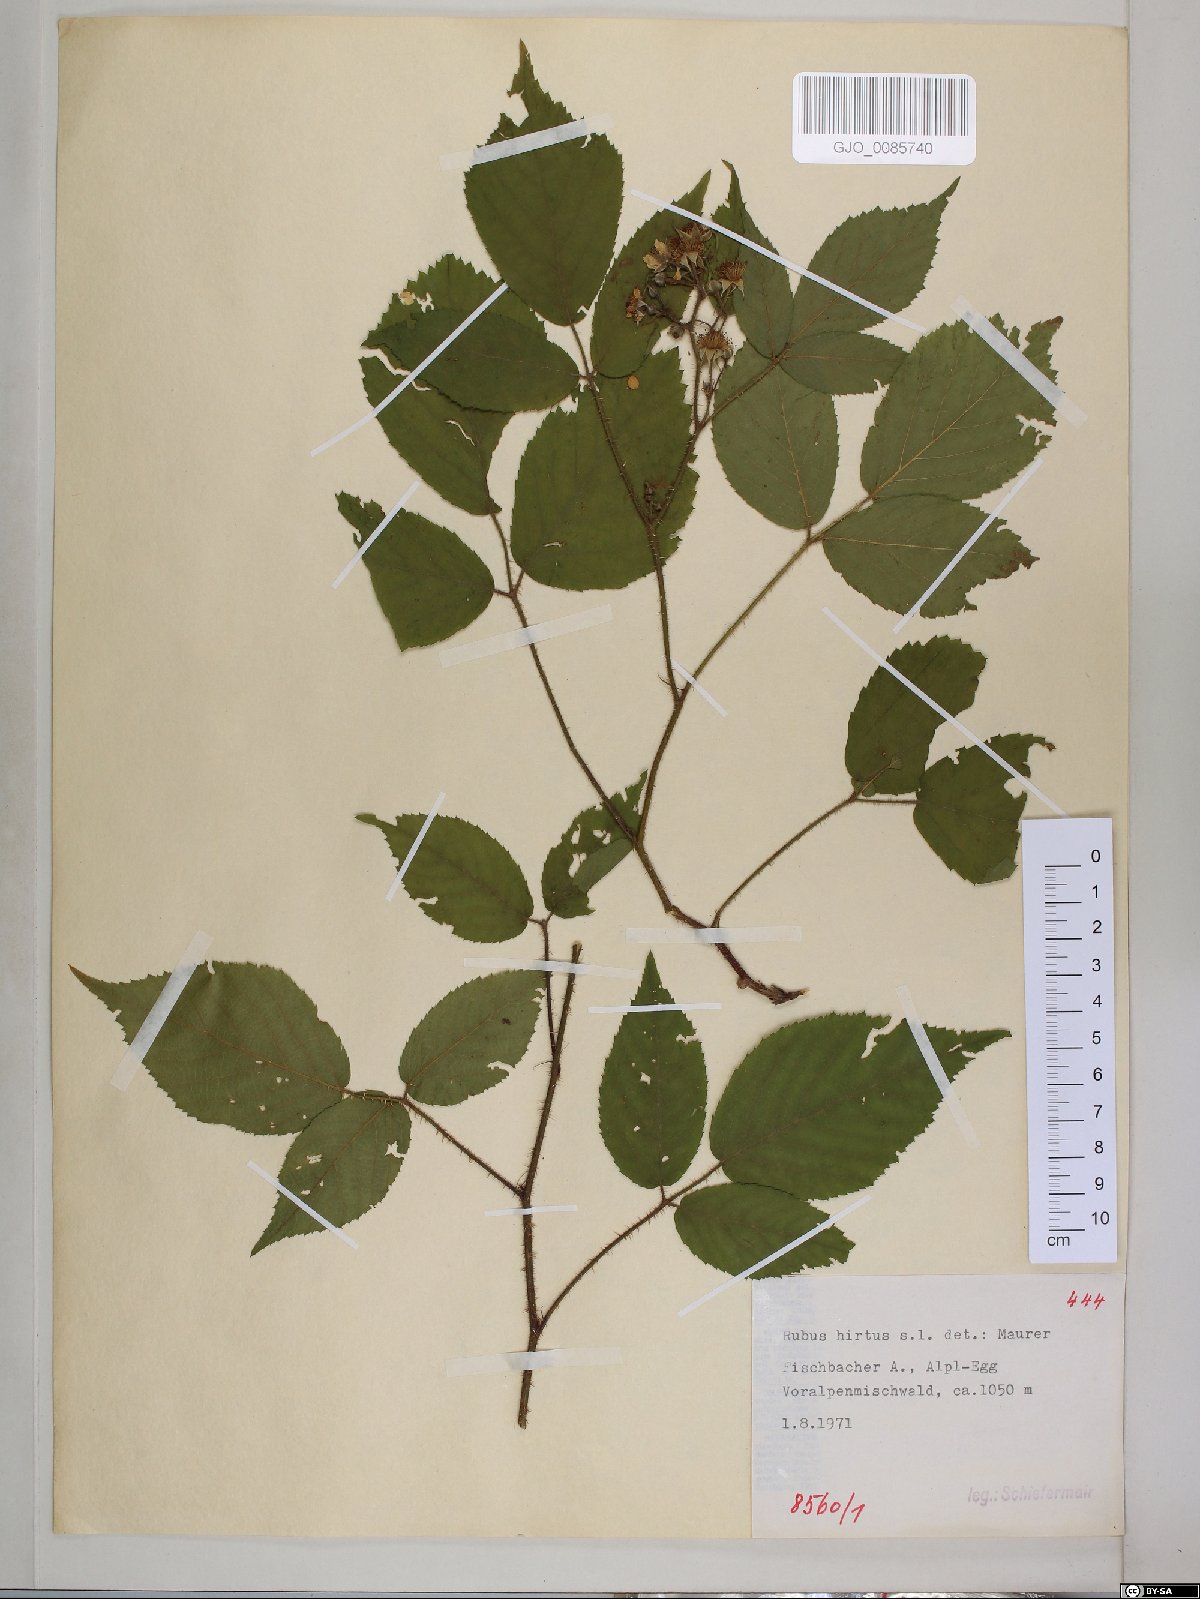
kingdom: Plantae
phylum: Tracheophyta
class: Magnoliopsida
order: Rosales
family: Rosaceae
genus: Rubus
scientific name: Rubus hirtus
